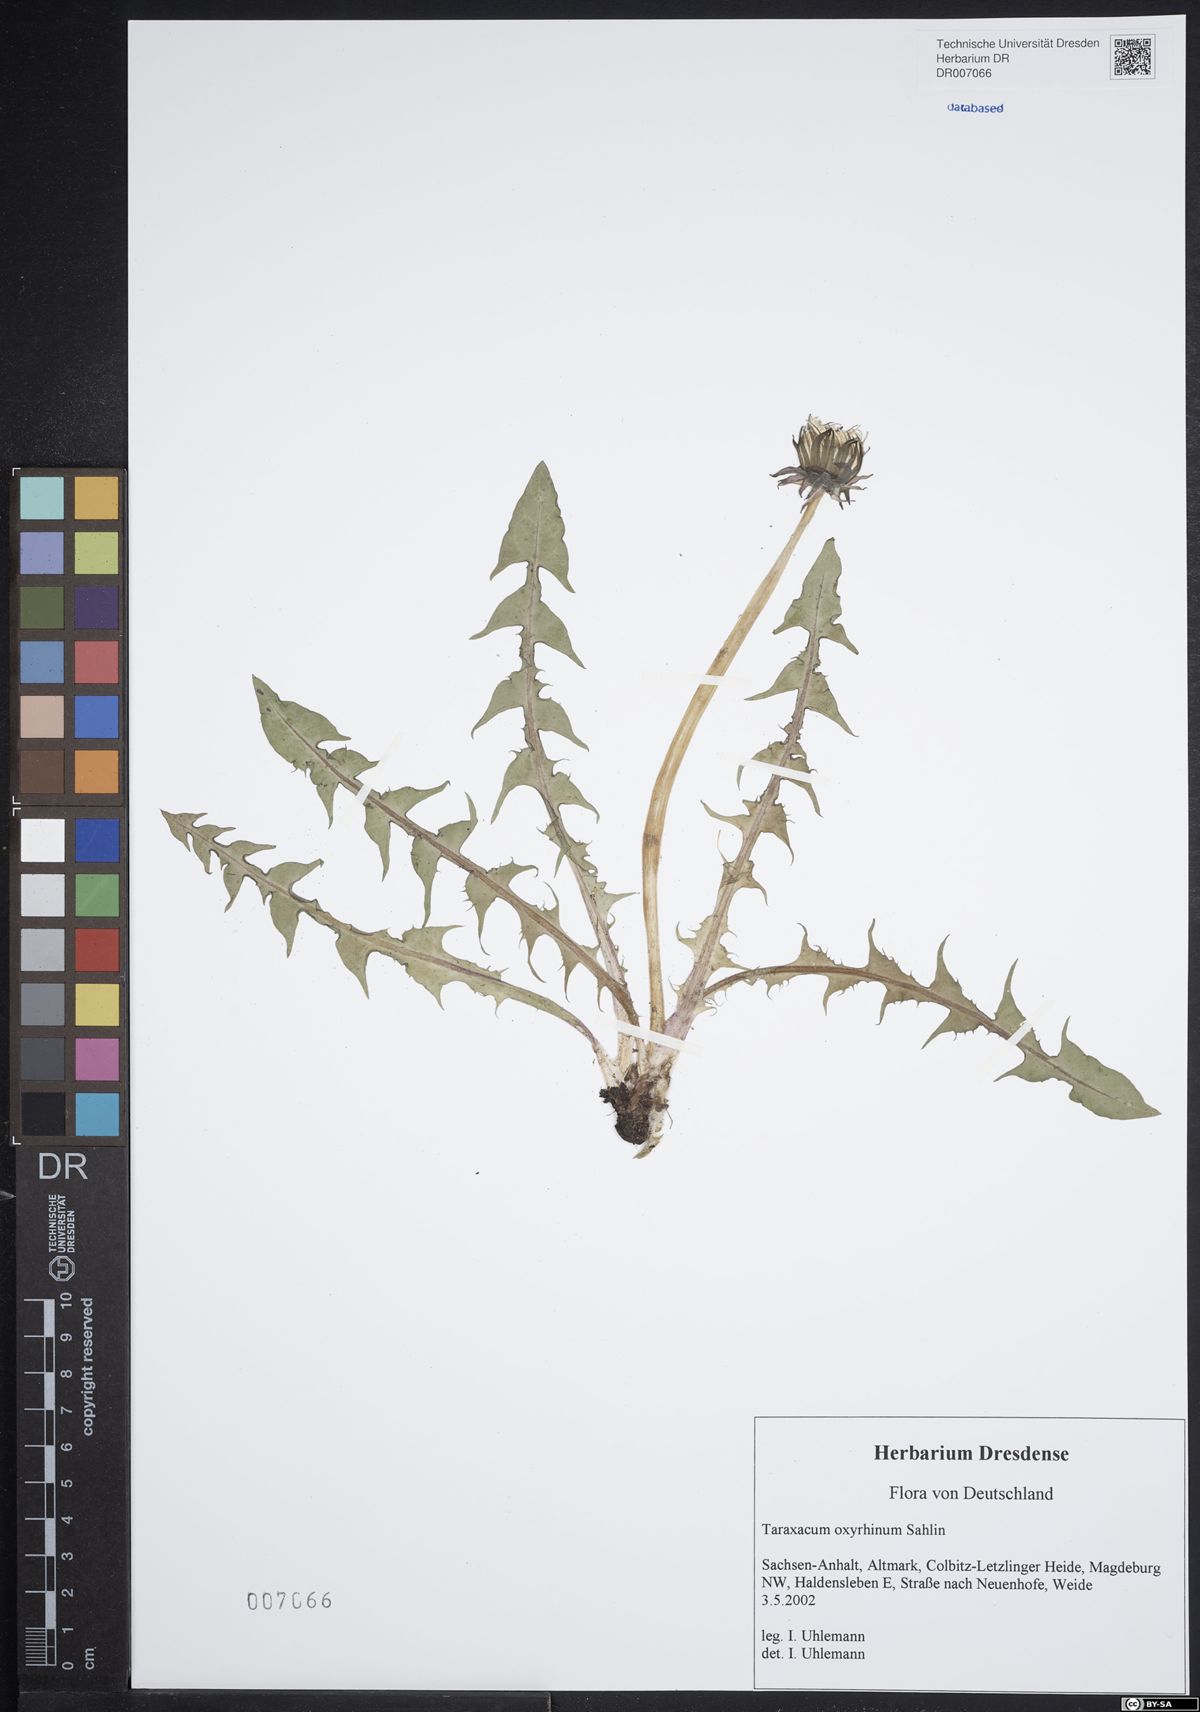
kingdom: Plantae
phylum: Tracheophyta
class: Magnoliopsida
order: Asterales
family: Asteraceae
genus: Taraxacum
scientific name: Taraxacum oxyrrhinum
